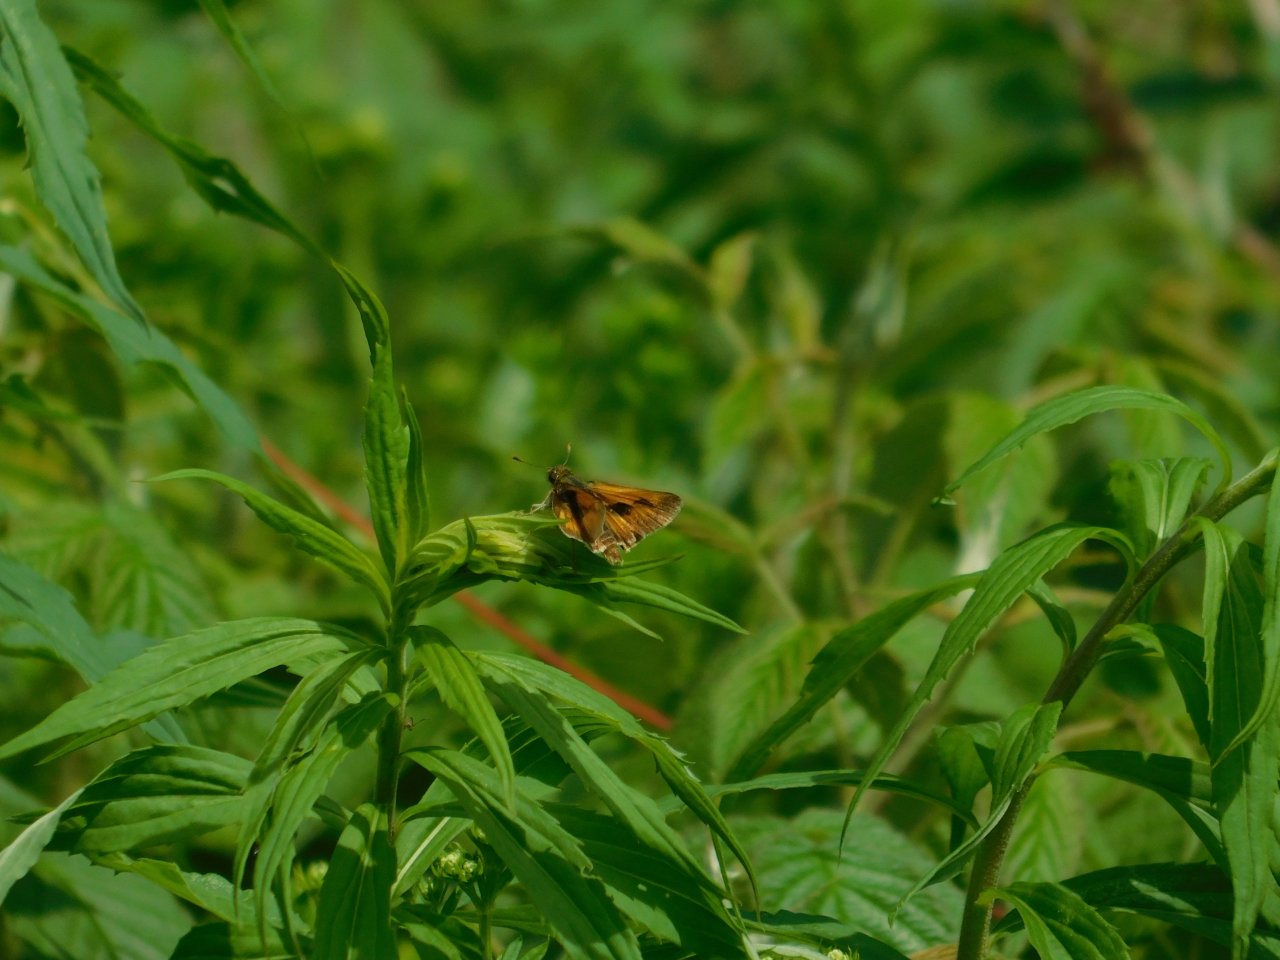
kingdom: Animalia
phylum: Arthropoda
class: Insecta
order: Lepidoptera
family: Hesperiidae
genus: Polites
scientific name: Polites
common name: Long Dash Skipper
